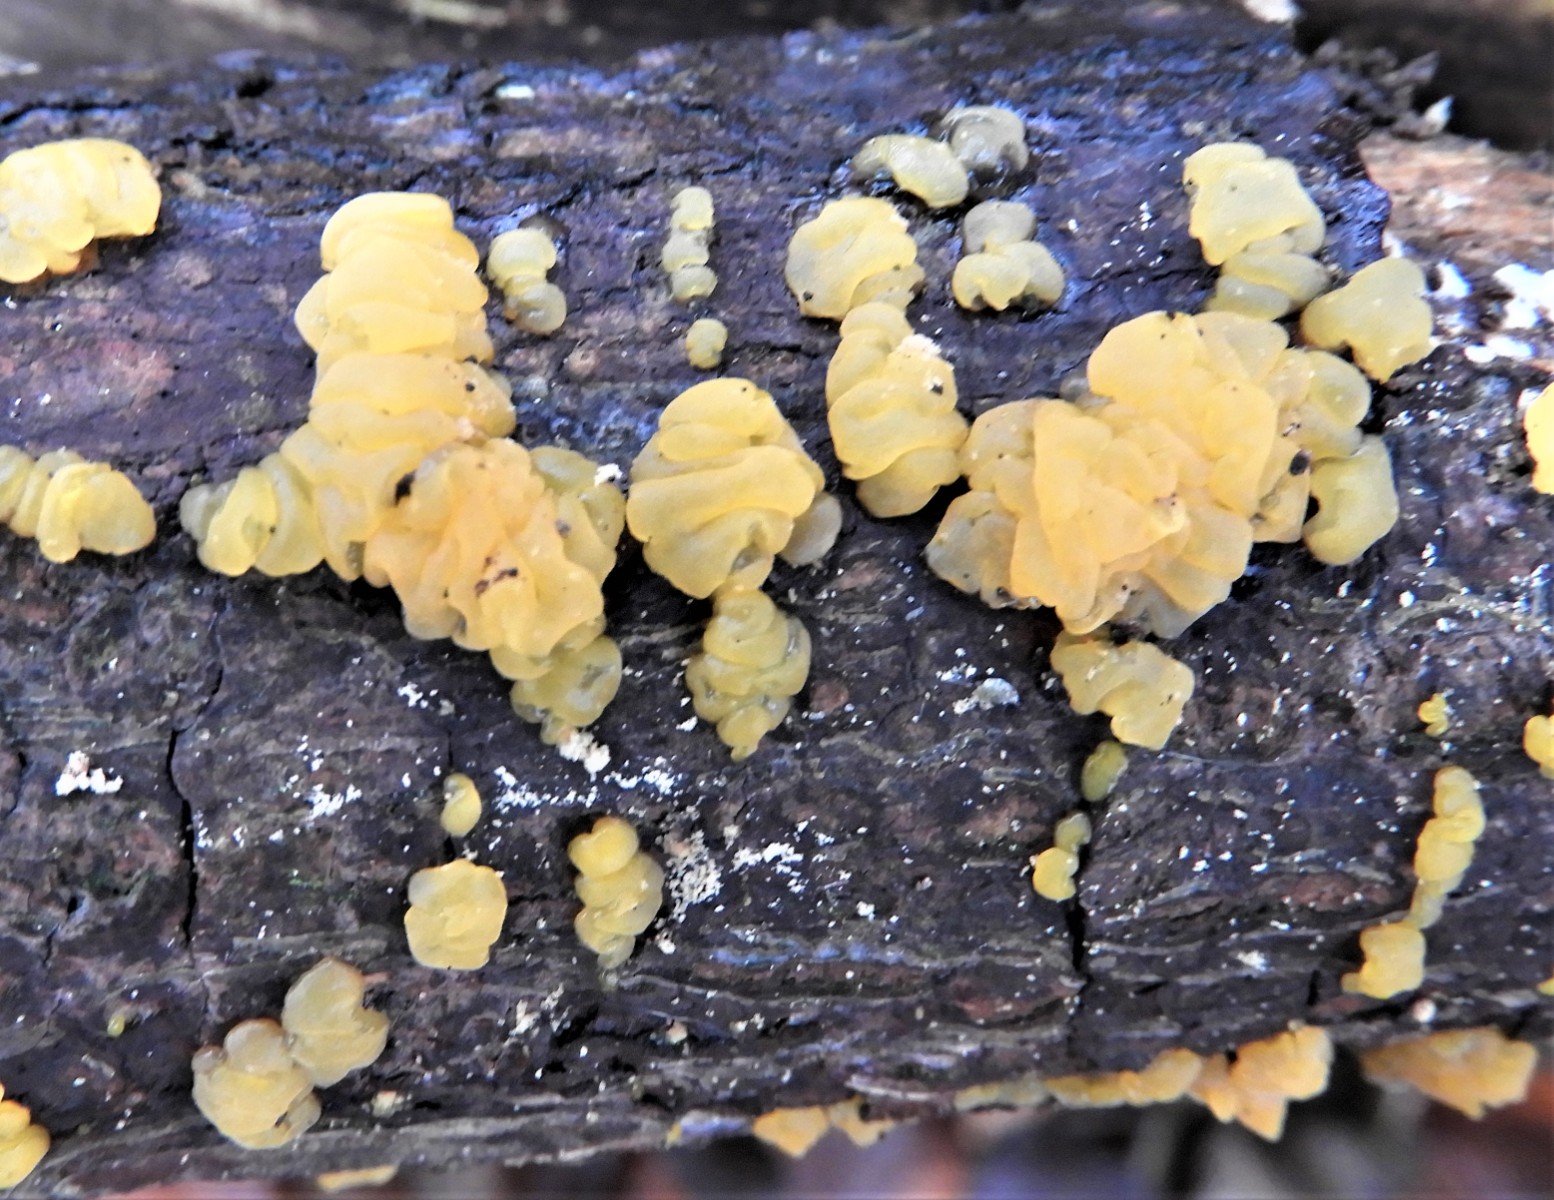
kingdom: Fungi
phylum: Basidiomycota
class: Dacrymycetes
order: Dacrymycetales
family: Dacrymycetaceae
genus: Dacrymyces
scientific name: Dacrymyces lacrymalis
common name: rynket tåresvamp
